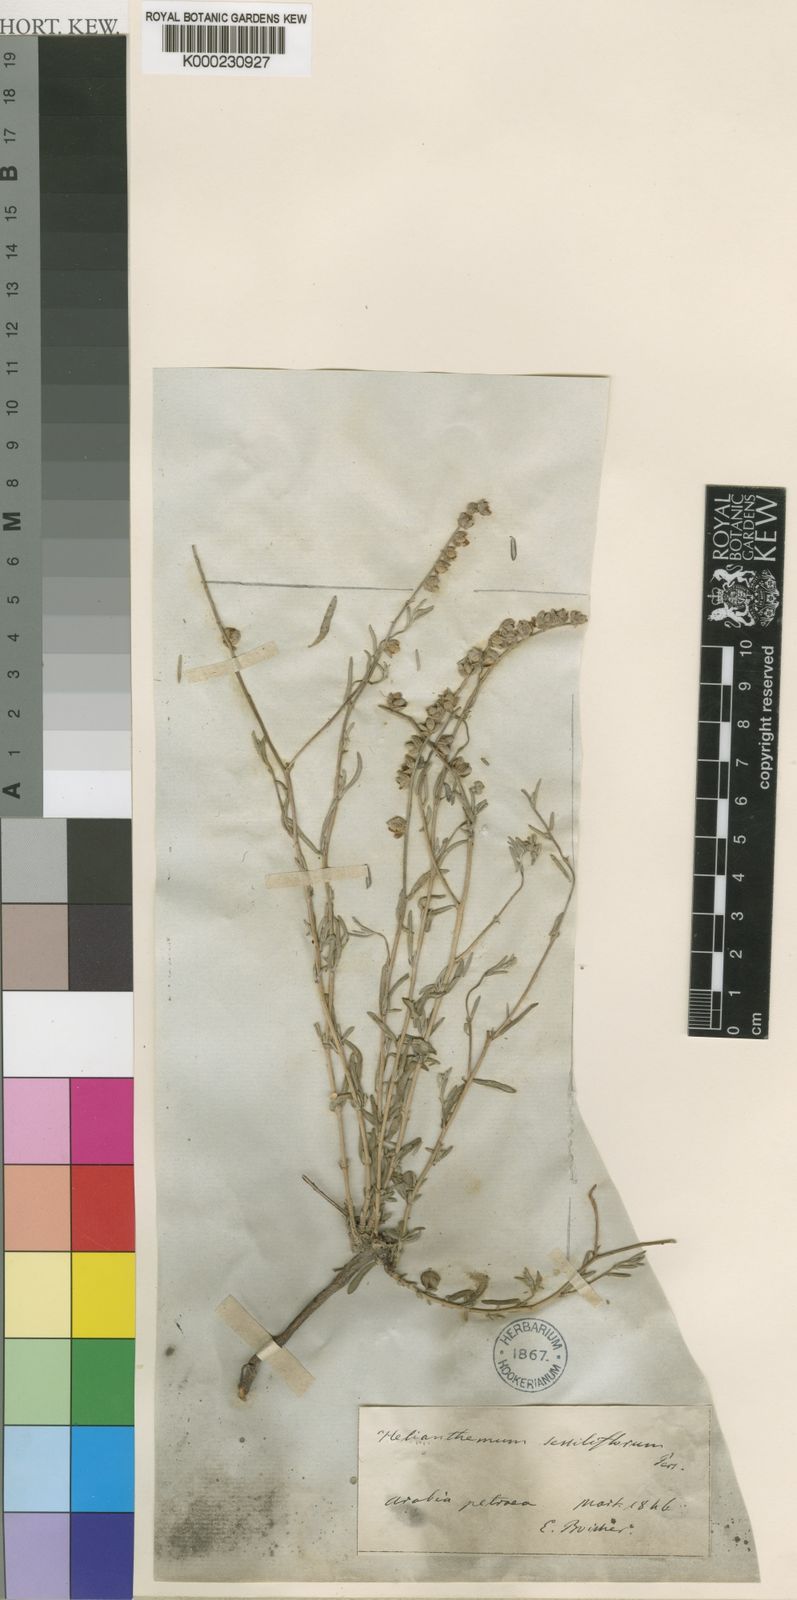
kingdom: Plantae
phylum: Tracheophyta
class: Magnoliopsida
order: Malvales
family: Cistaceae
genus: Helianthemum
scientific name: Helianthemum lippii
